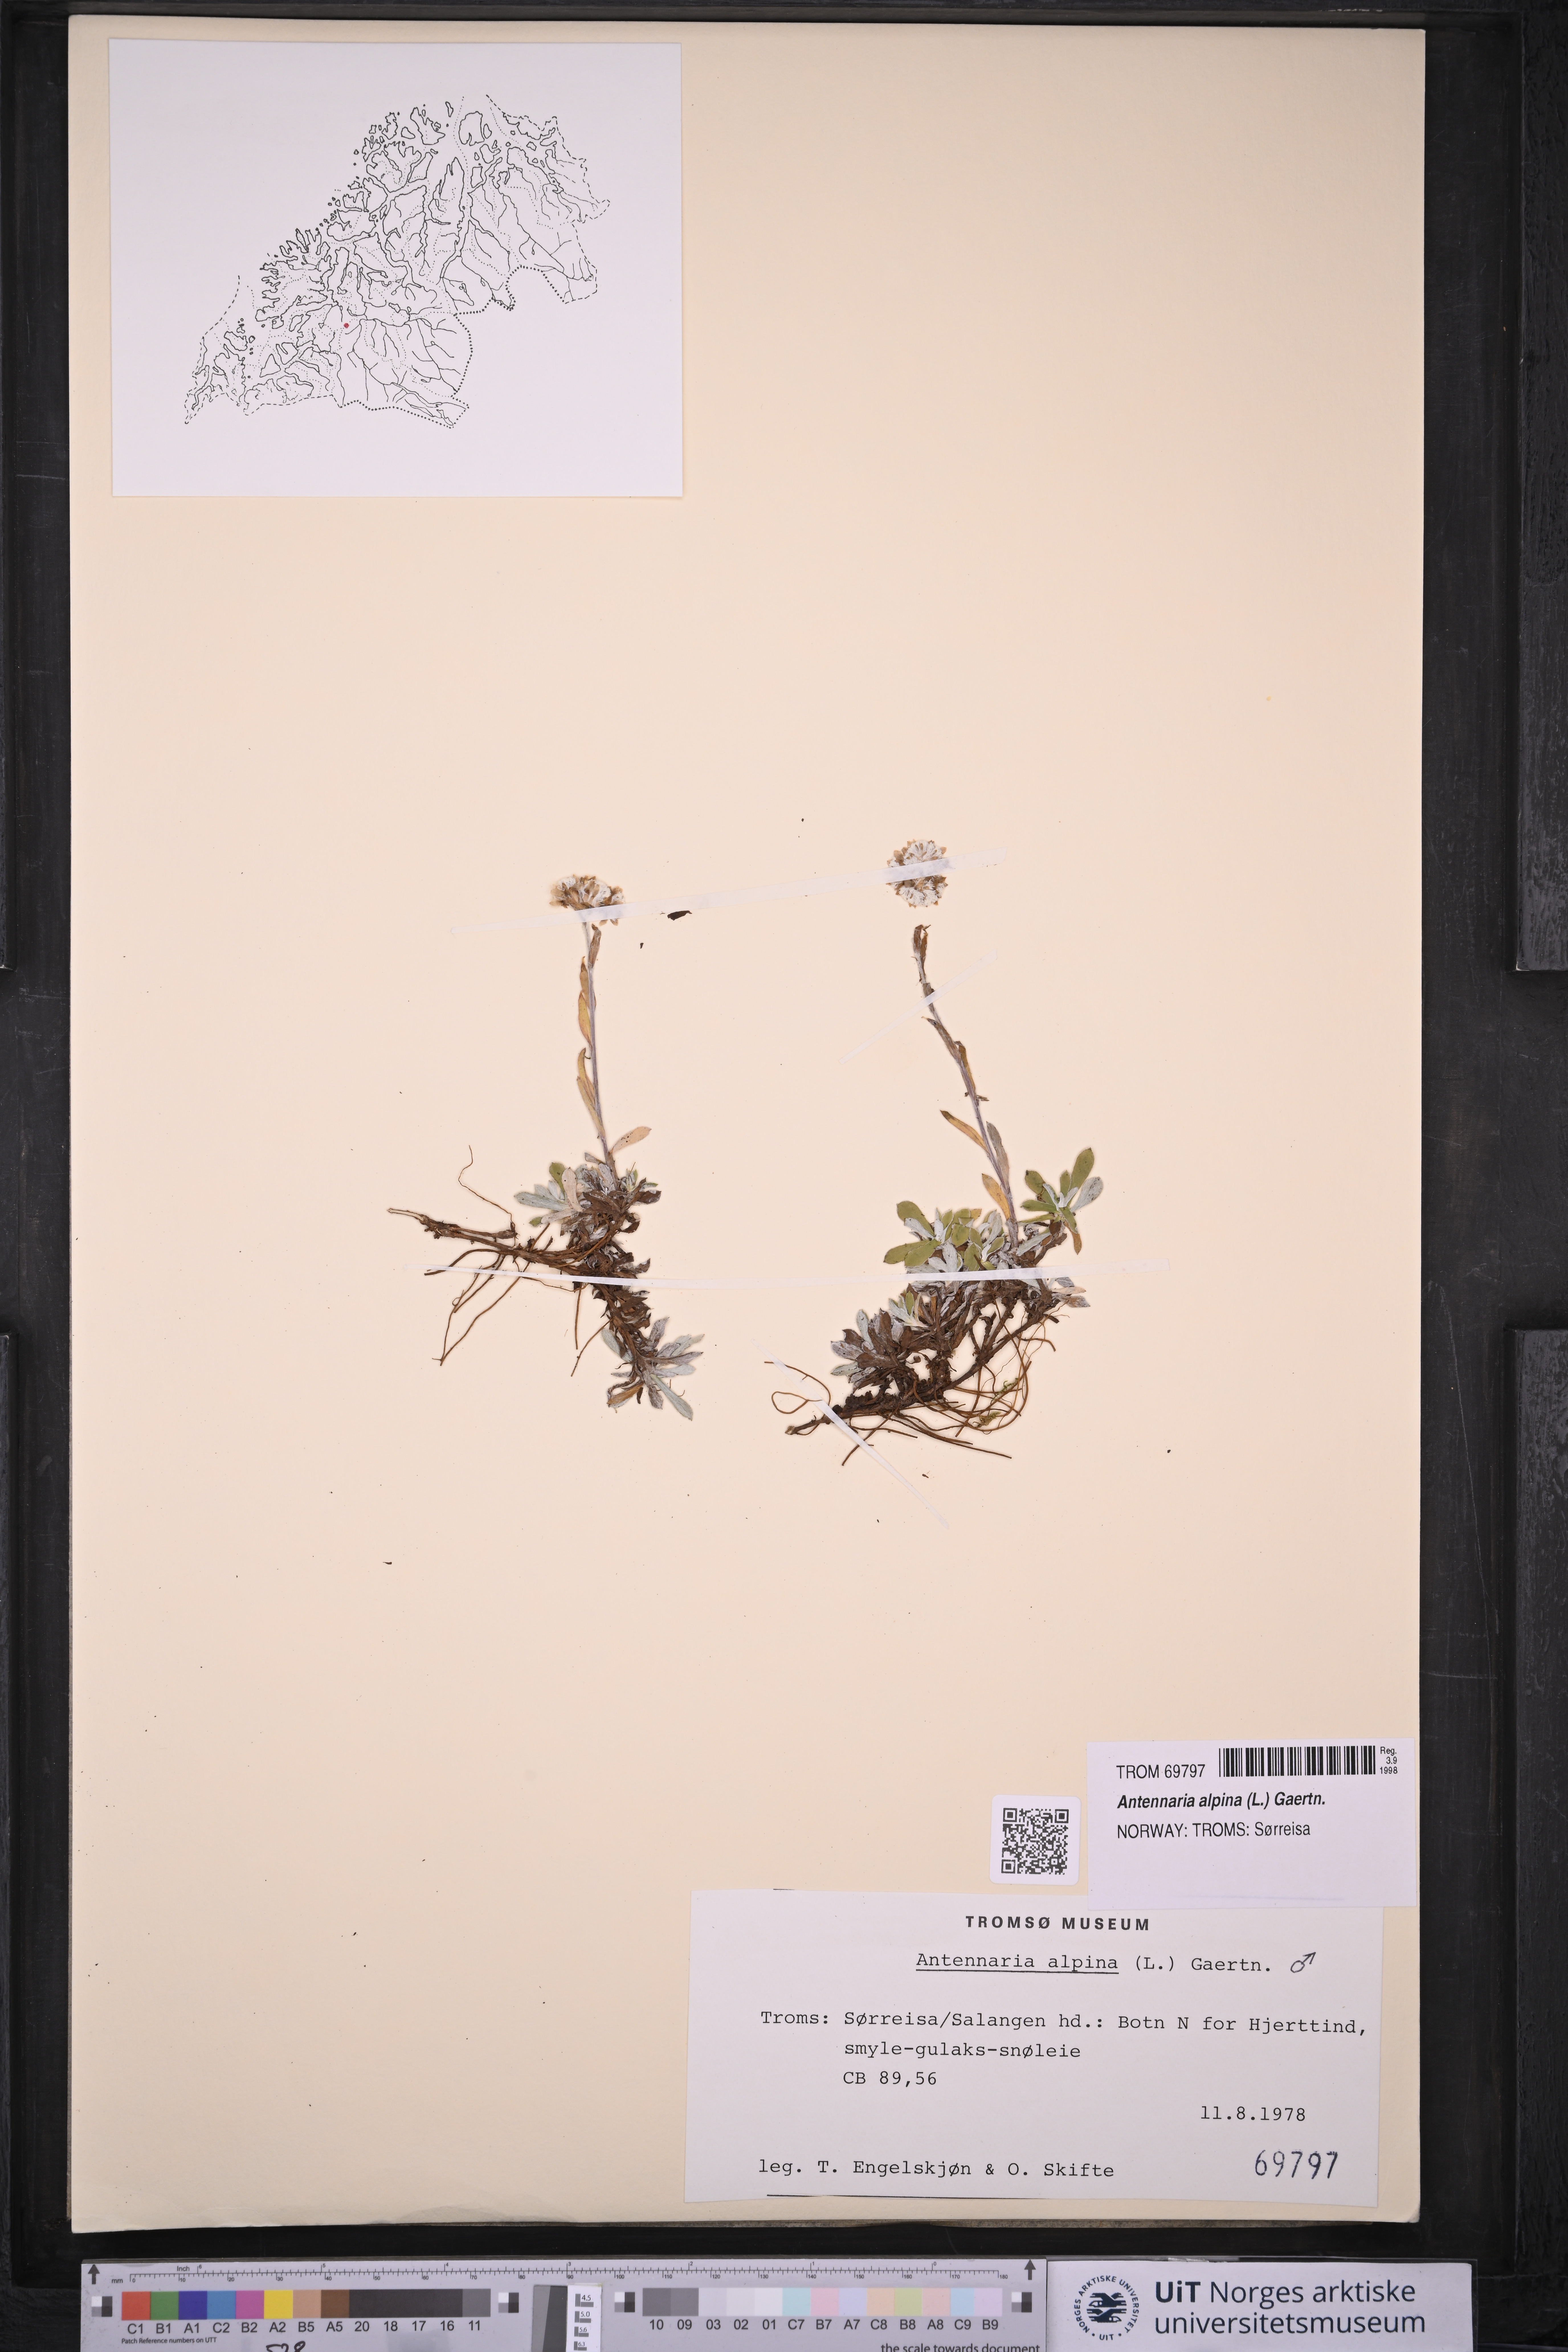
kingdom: Plantae
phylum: Tracheophyta
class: Magnoliopsida
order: Asterales
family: Asteraceae
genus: Antennaria
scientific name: Antennaria alpina
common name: Alpine pussytoes
